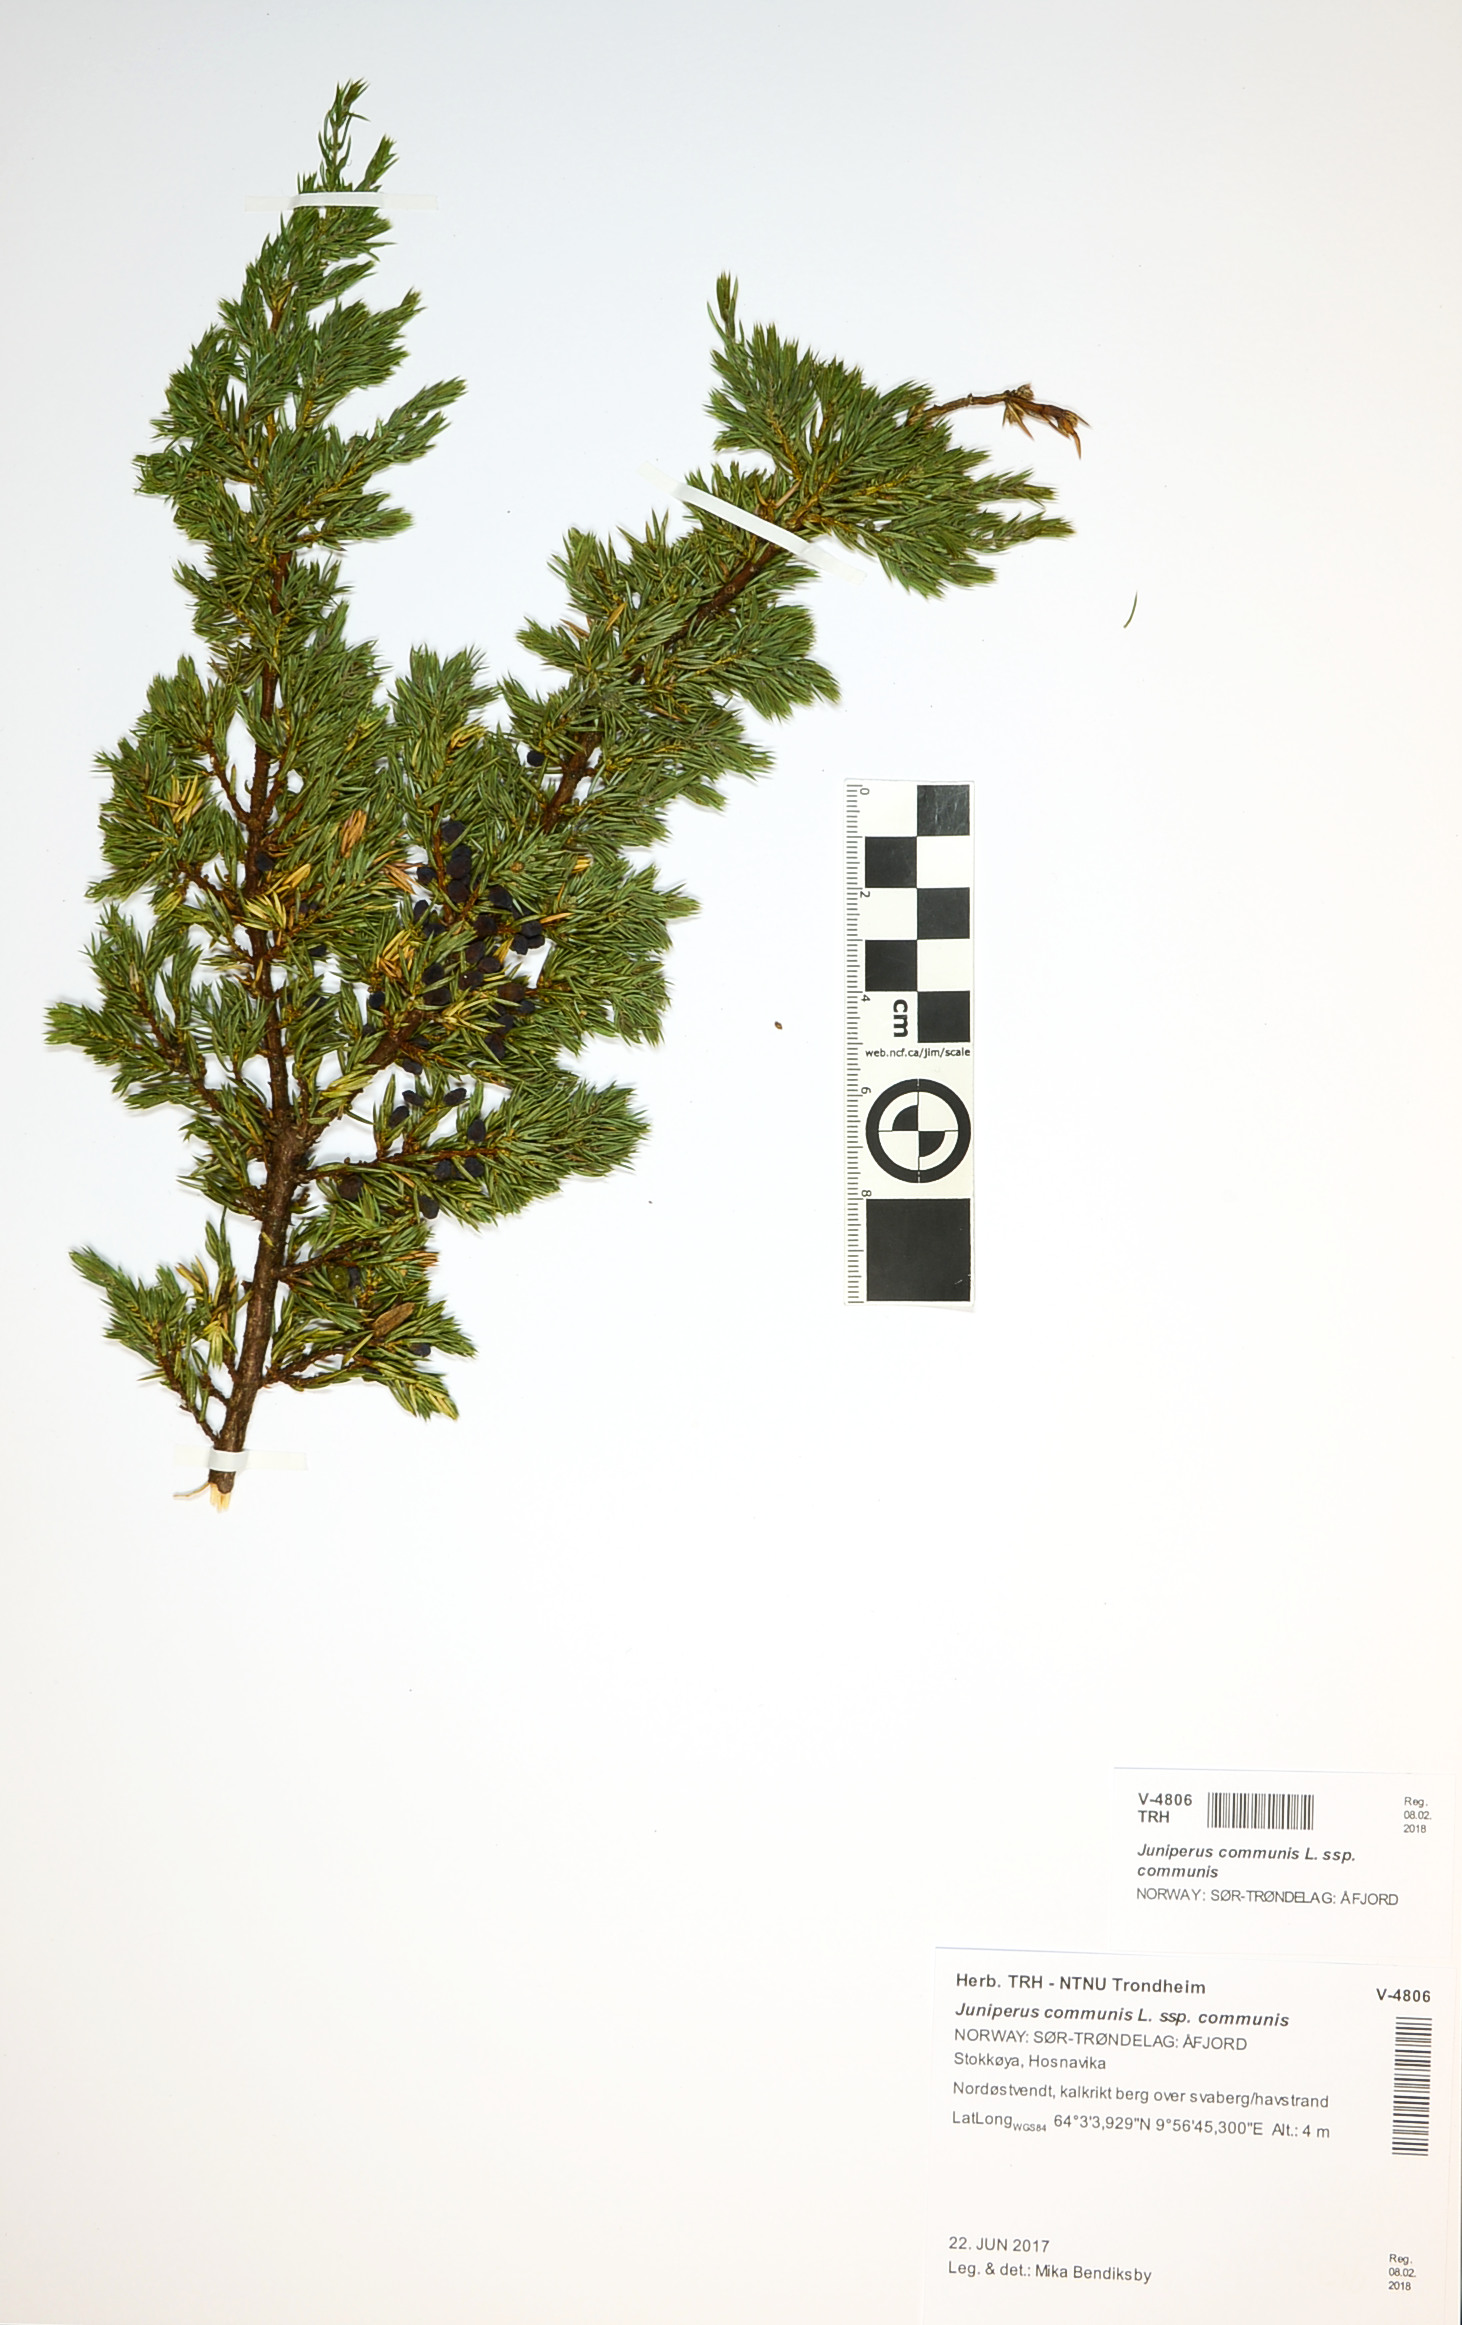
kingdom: Plantae
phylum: Tracheophyta
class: Pinopsida
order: Pinales
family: Cupressaceae
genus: Juniperus
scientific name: Juniperus communis
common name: Common juniper
